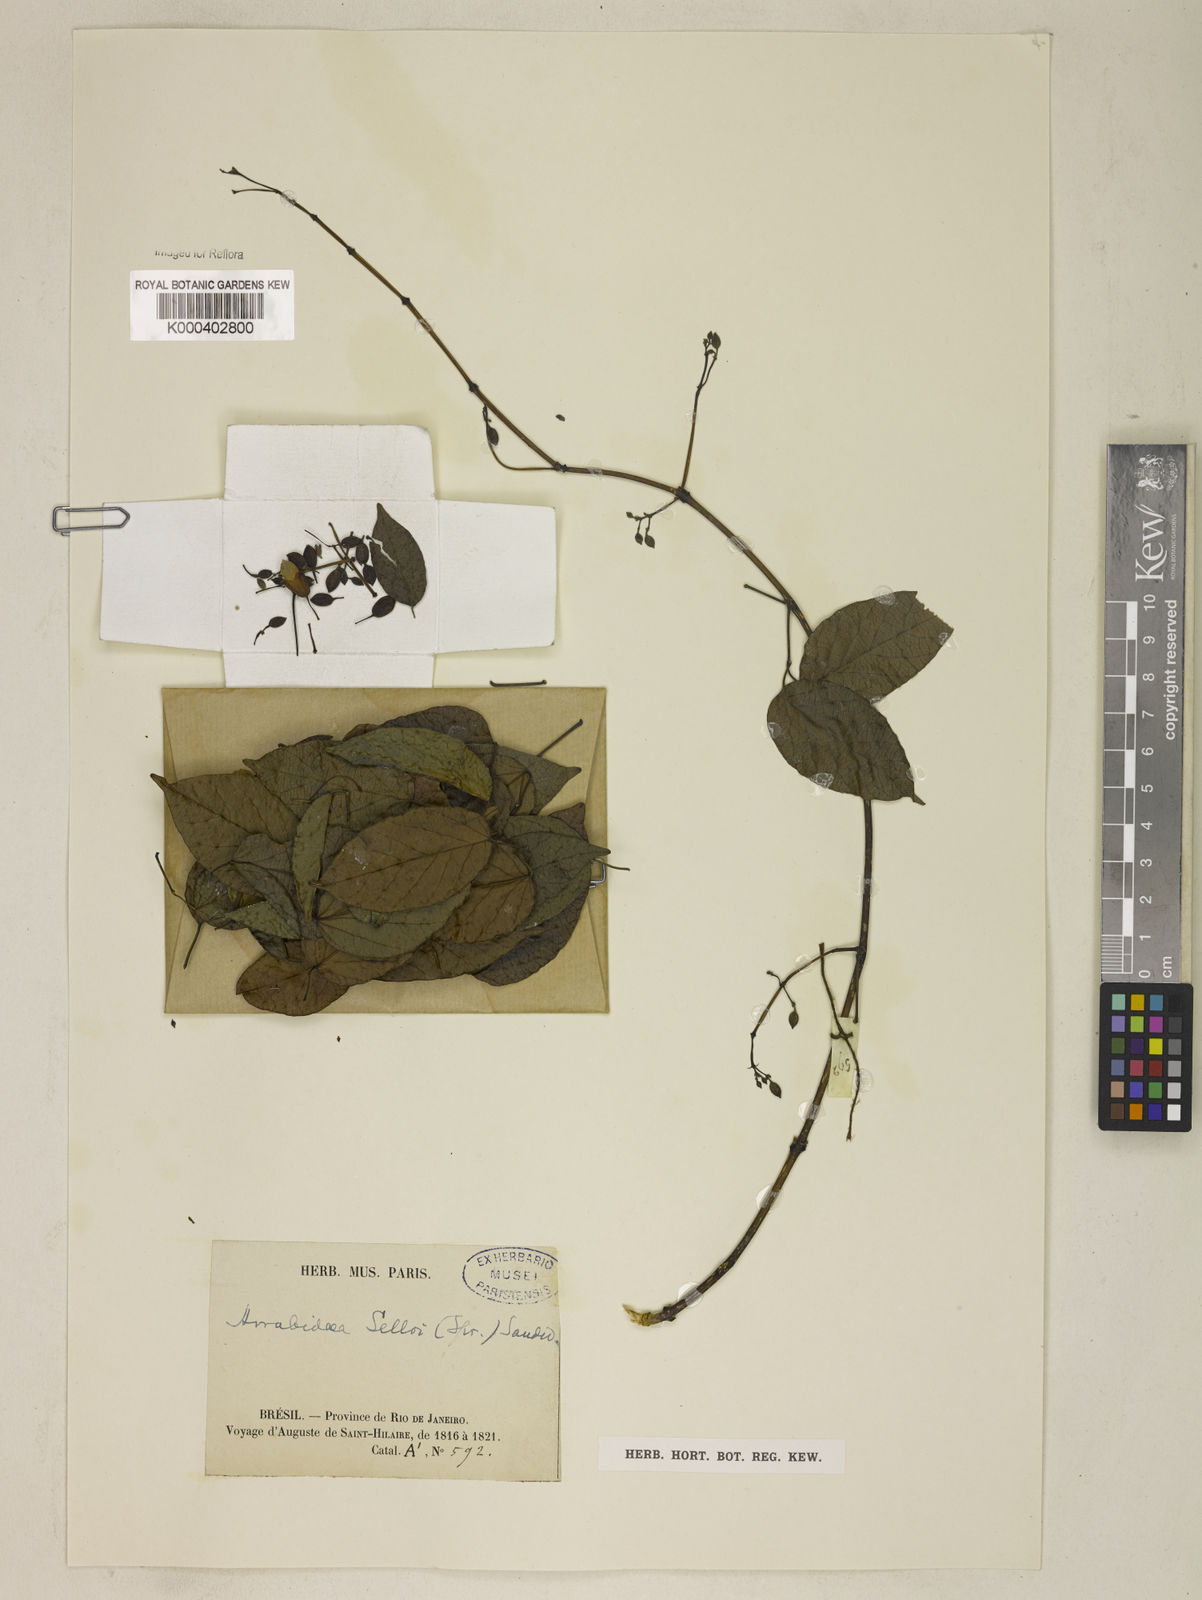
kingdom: Plantae
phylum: Tracheophyta
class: Magnoliopsida
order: Lamiales
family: Bignoniaceae
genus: Tanaecium
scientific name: Tanaecium selloi
